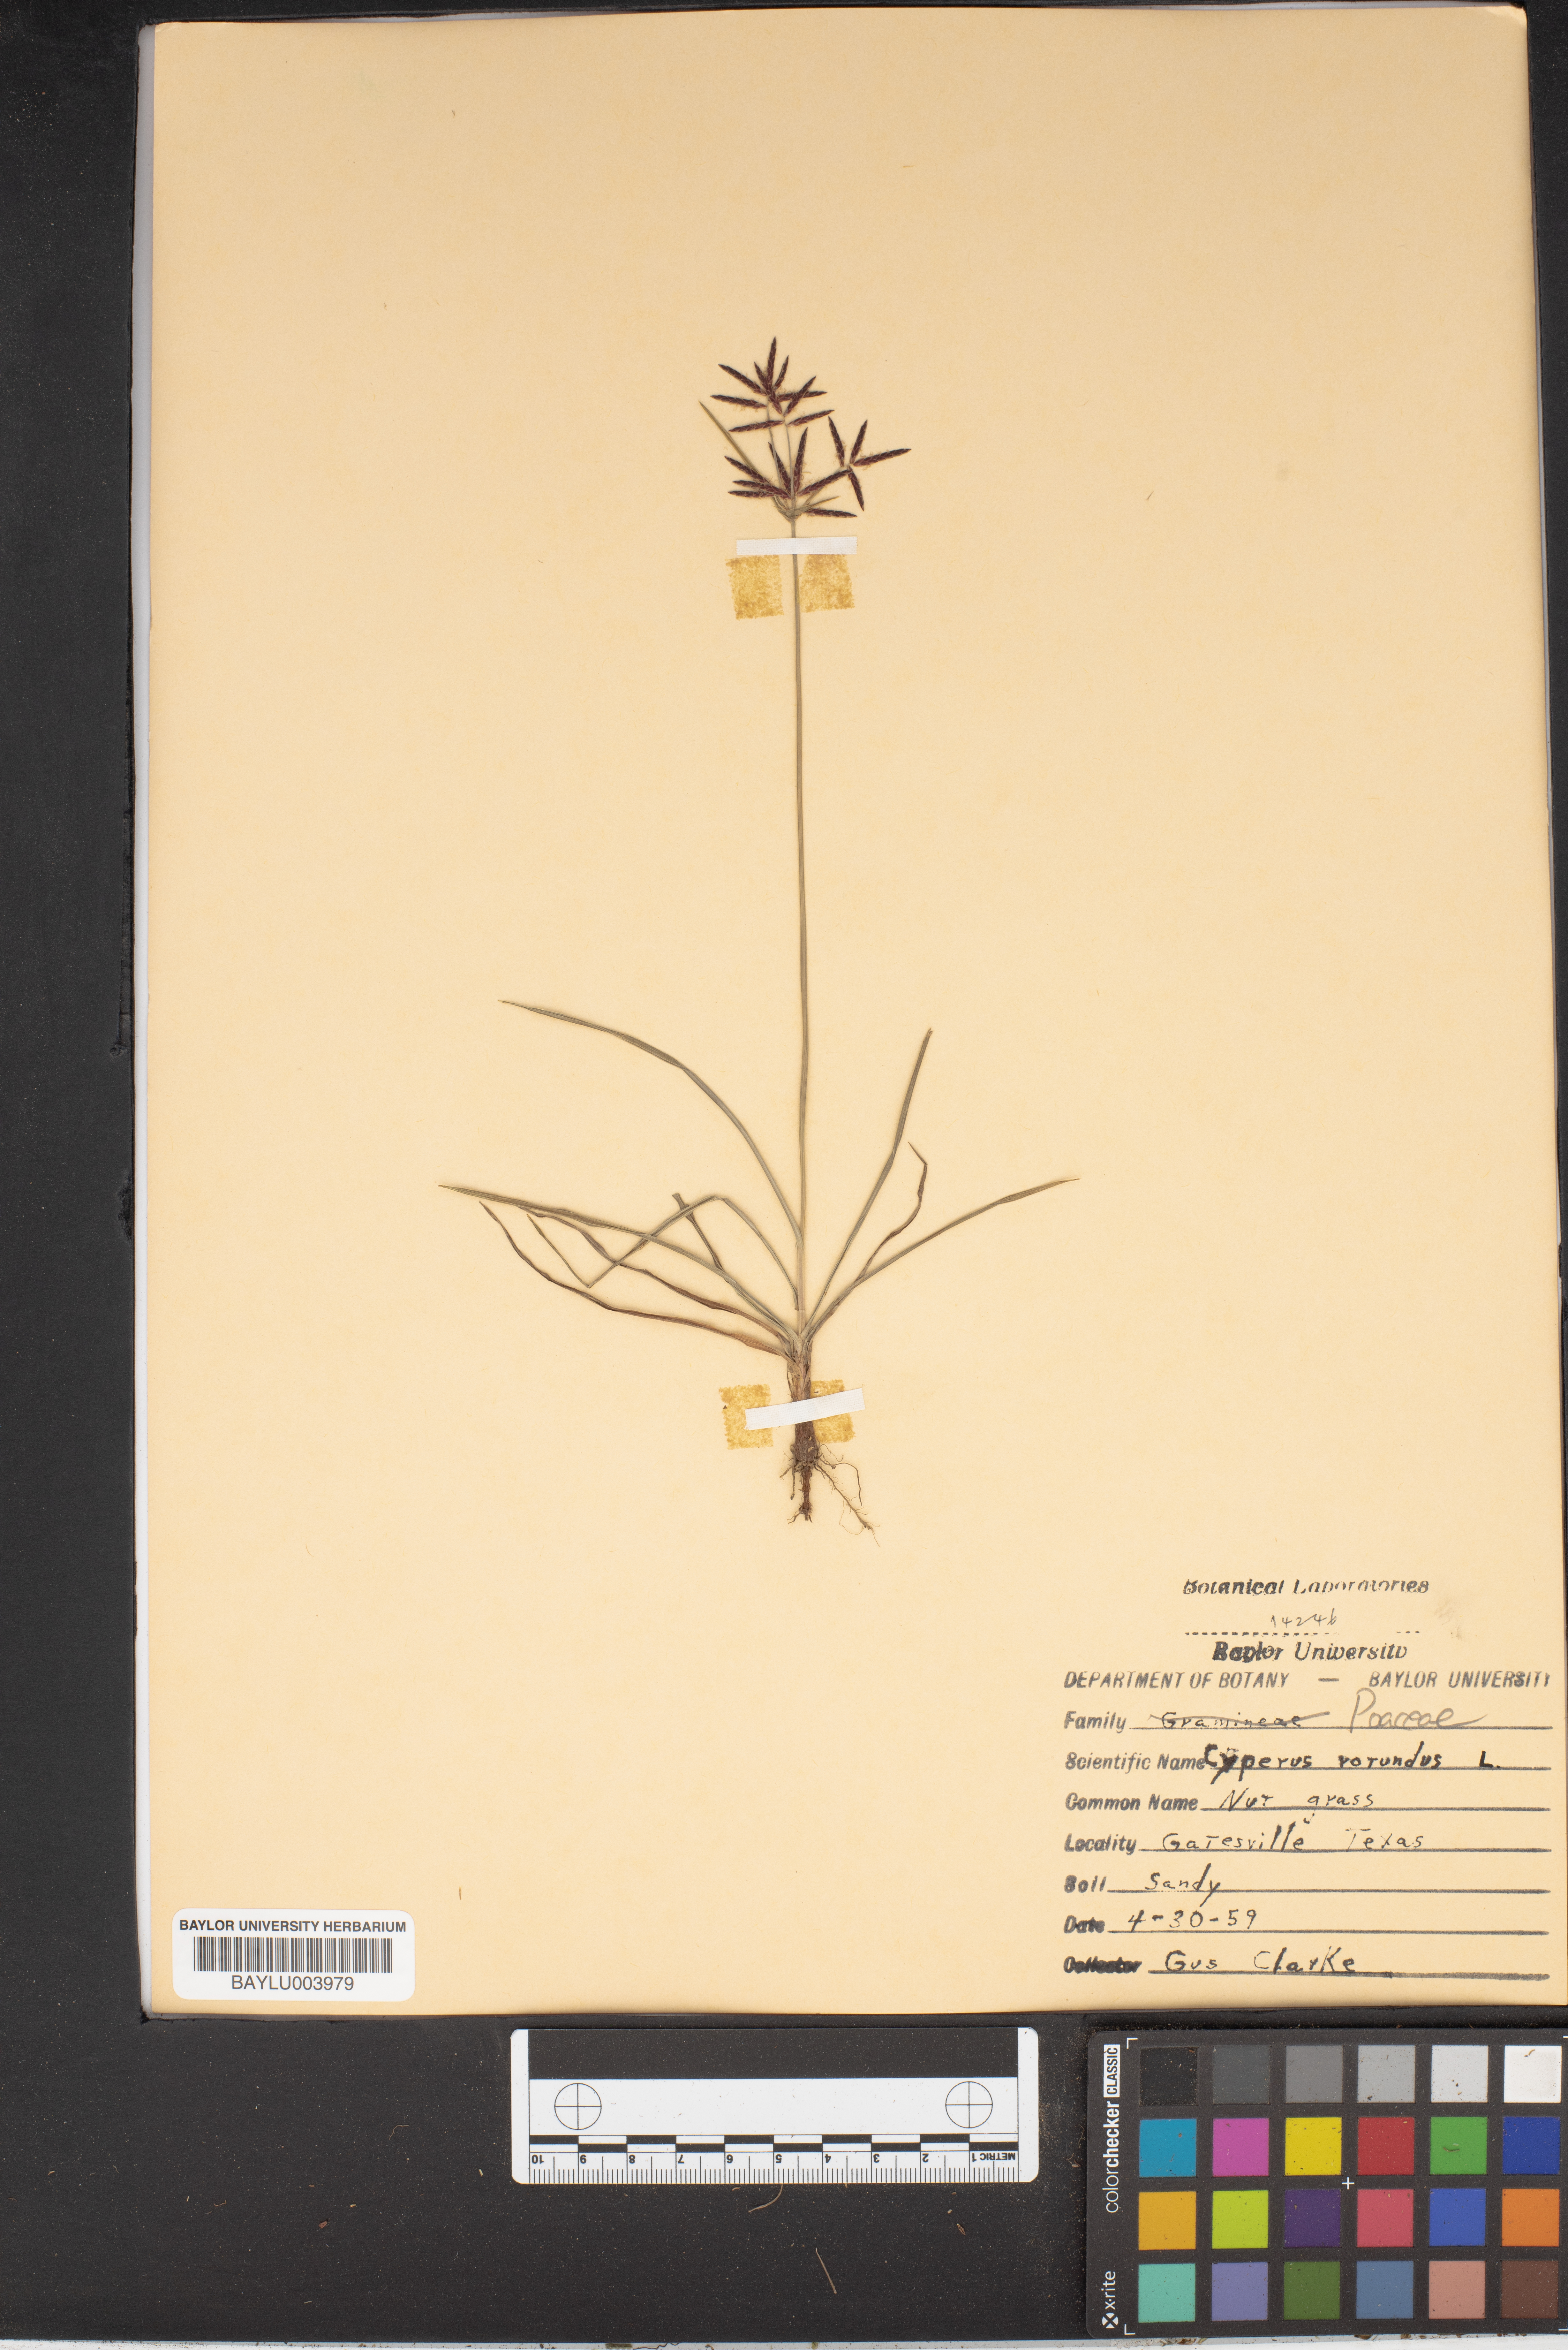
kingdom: Plantae
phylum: Tracheophyta
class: Liliopsida
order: Poales
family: Cyperaceae
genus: Cyperus
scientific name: Cyperus
